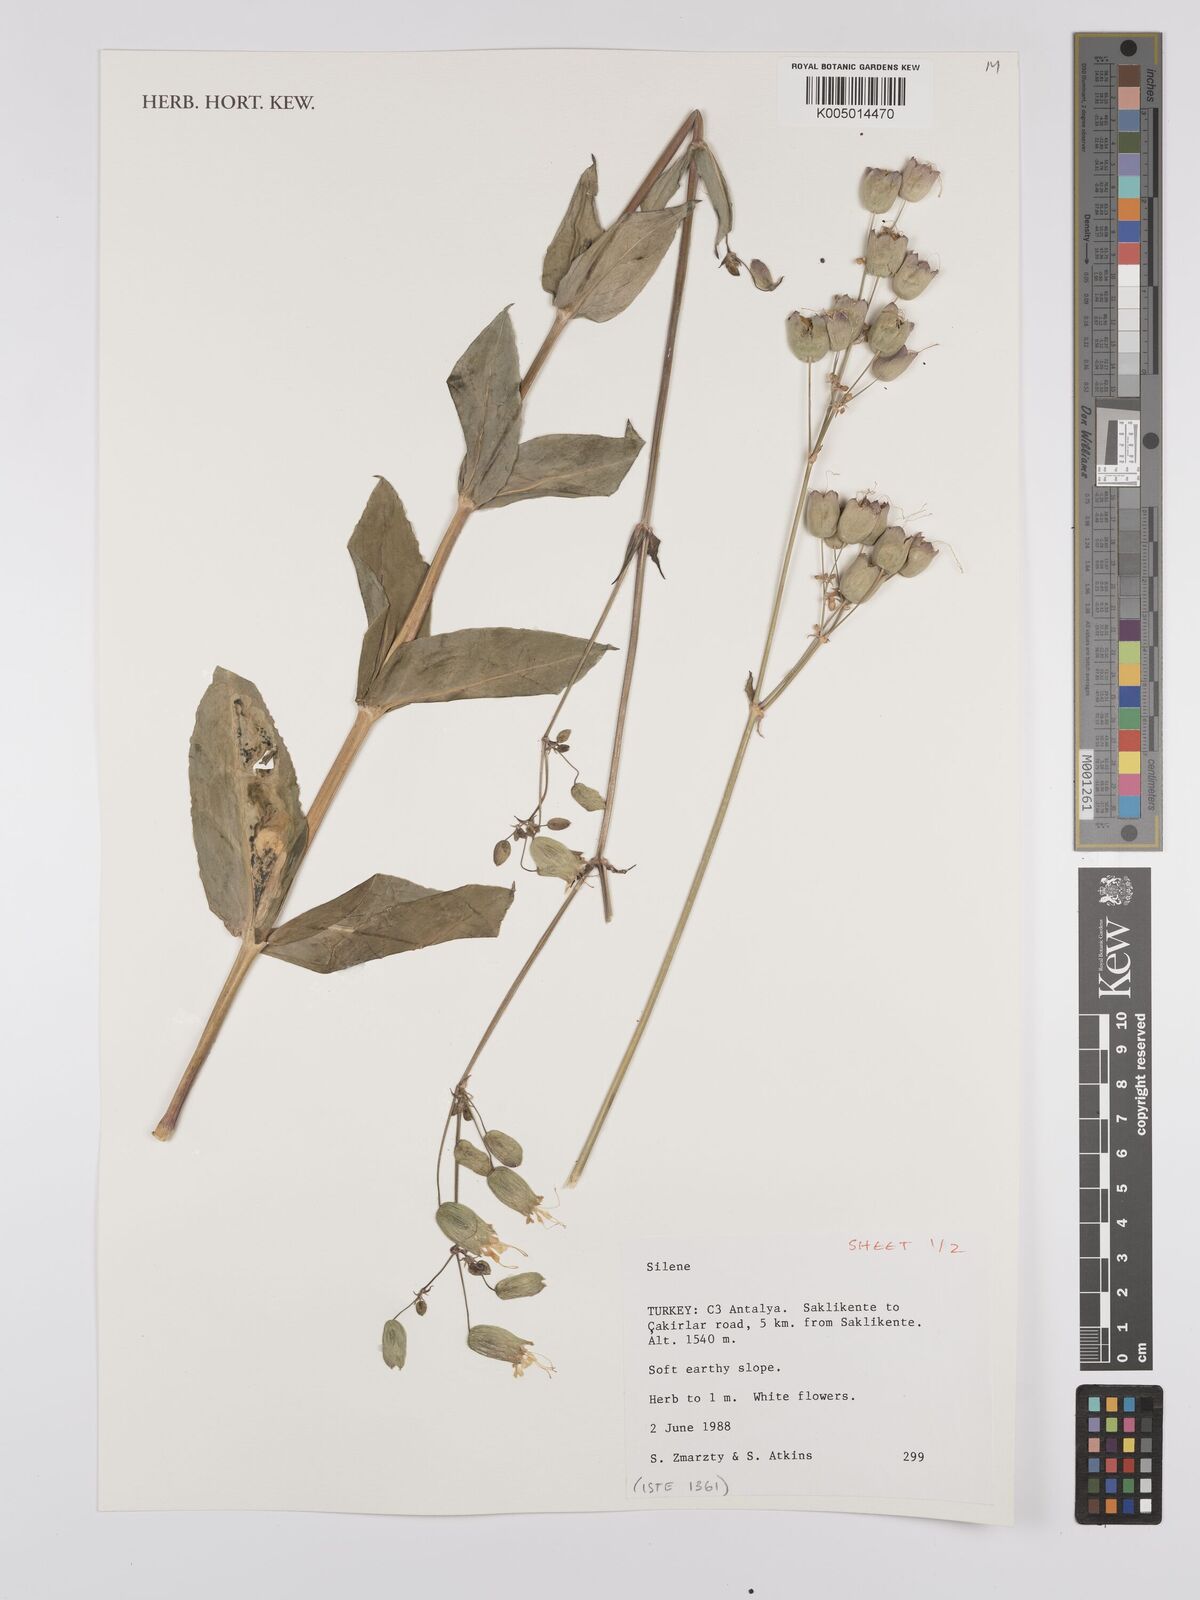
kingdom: Plantae
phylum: Tracheophyta
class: Magnoliopsida
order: Caryophyllales
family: Caryophyllaceae
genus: Silene
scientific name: Silene
